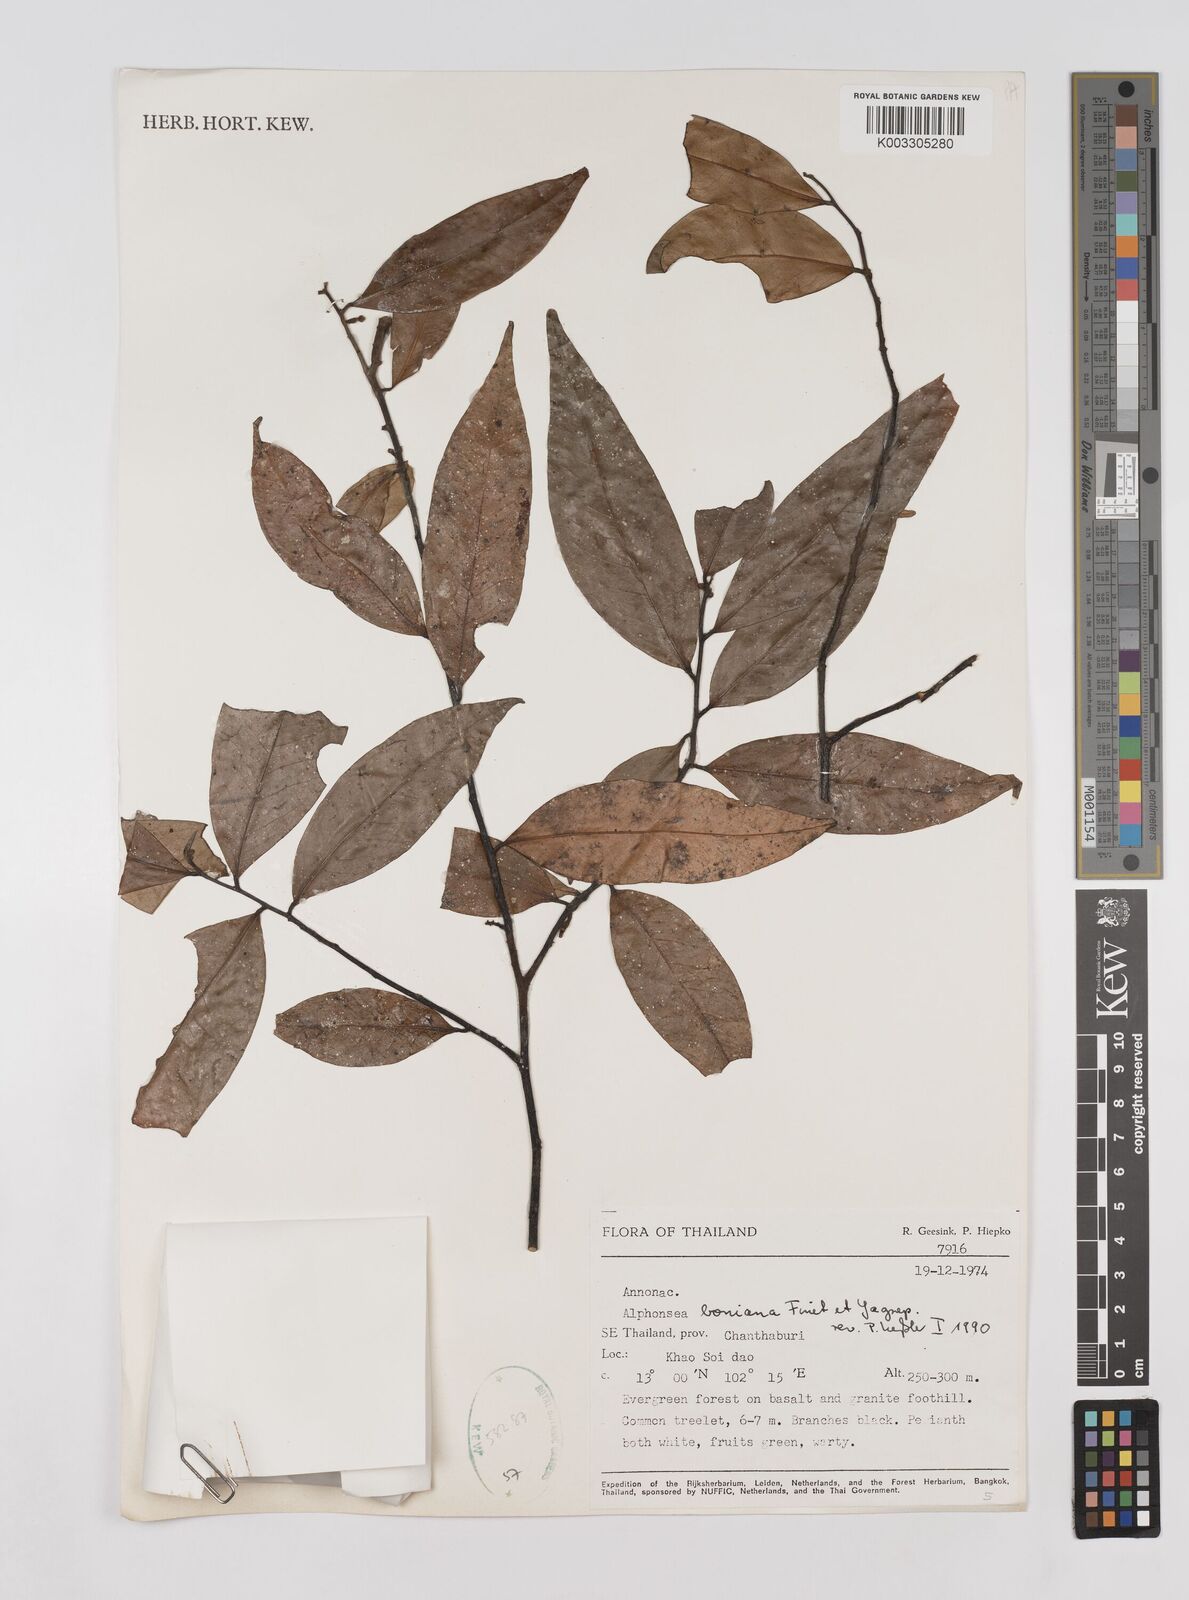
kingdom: Plantae
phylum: Tracheophyta
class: Magnoliopsida
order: Magnoliales
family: Annonaceae
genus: Alphonsea
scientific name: Alphonsea boniana
